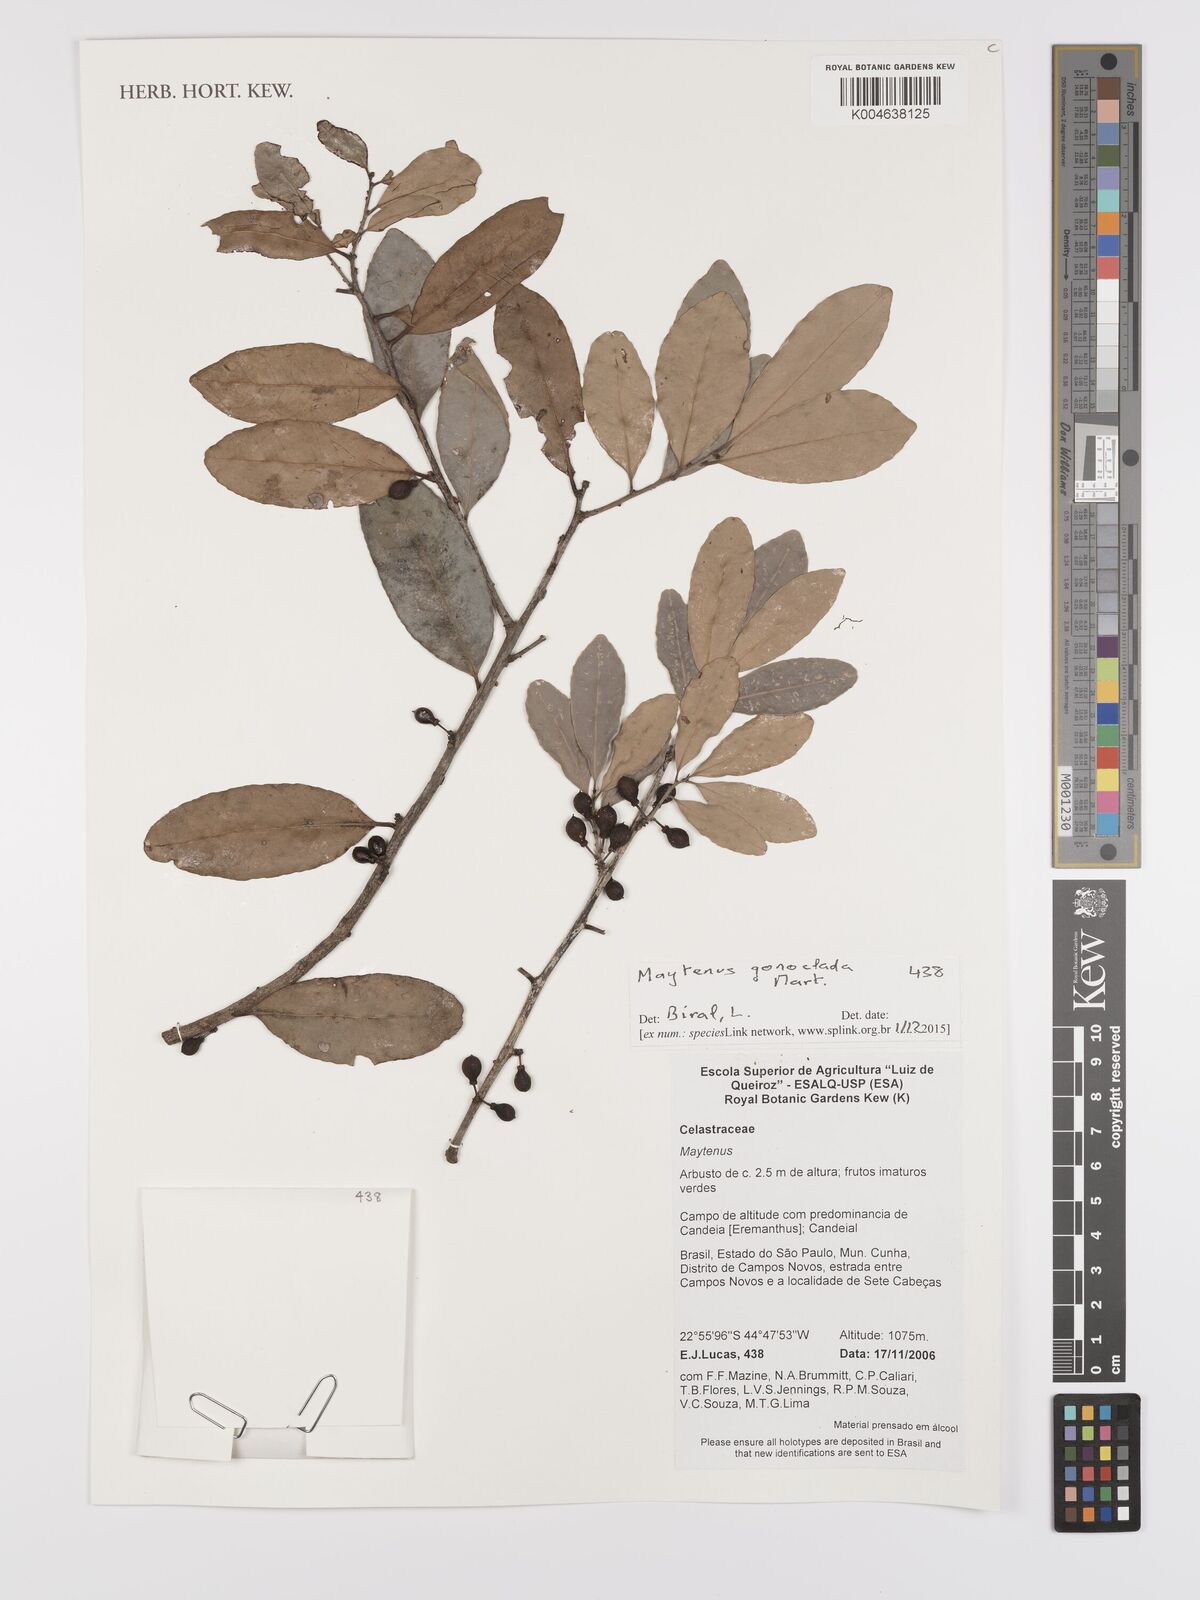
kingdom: Plantae
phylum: Tracheophyta
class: Magnoliopsida
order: Celastrales
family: Celastraceae
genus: Monteverdia
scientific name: Monteverdia gonoclada
